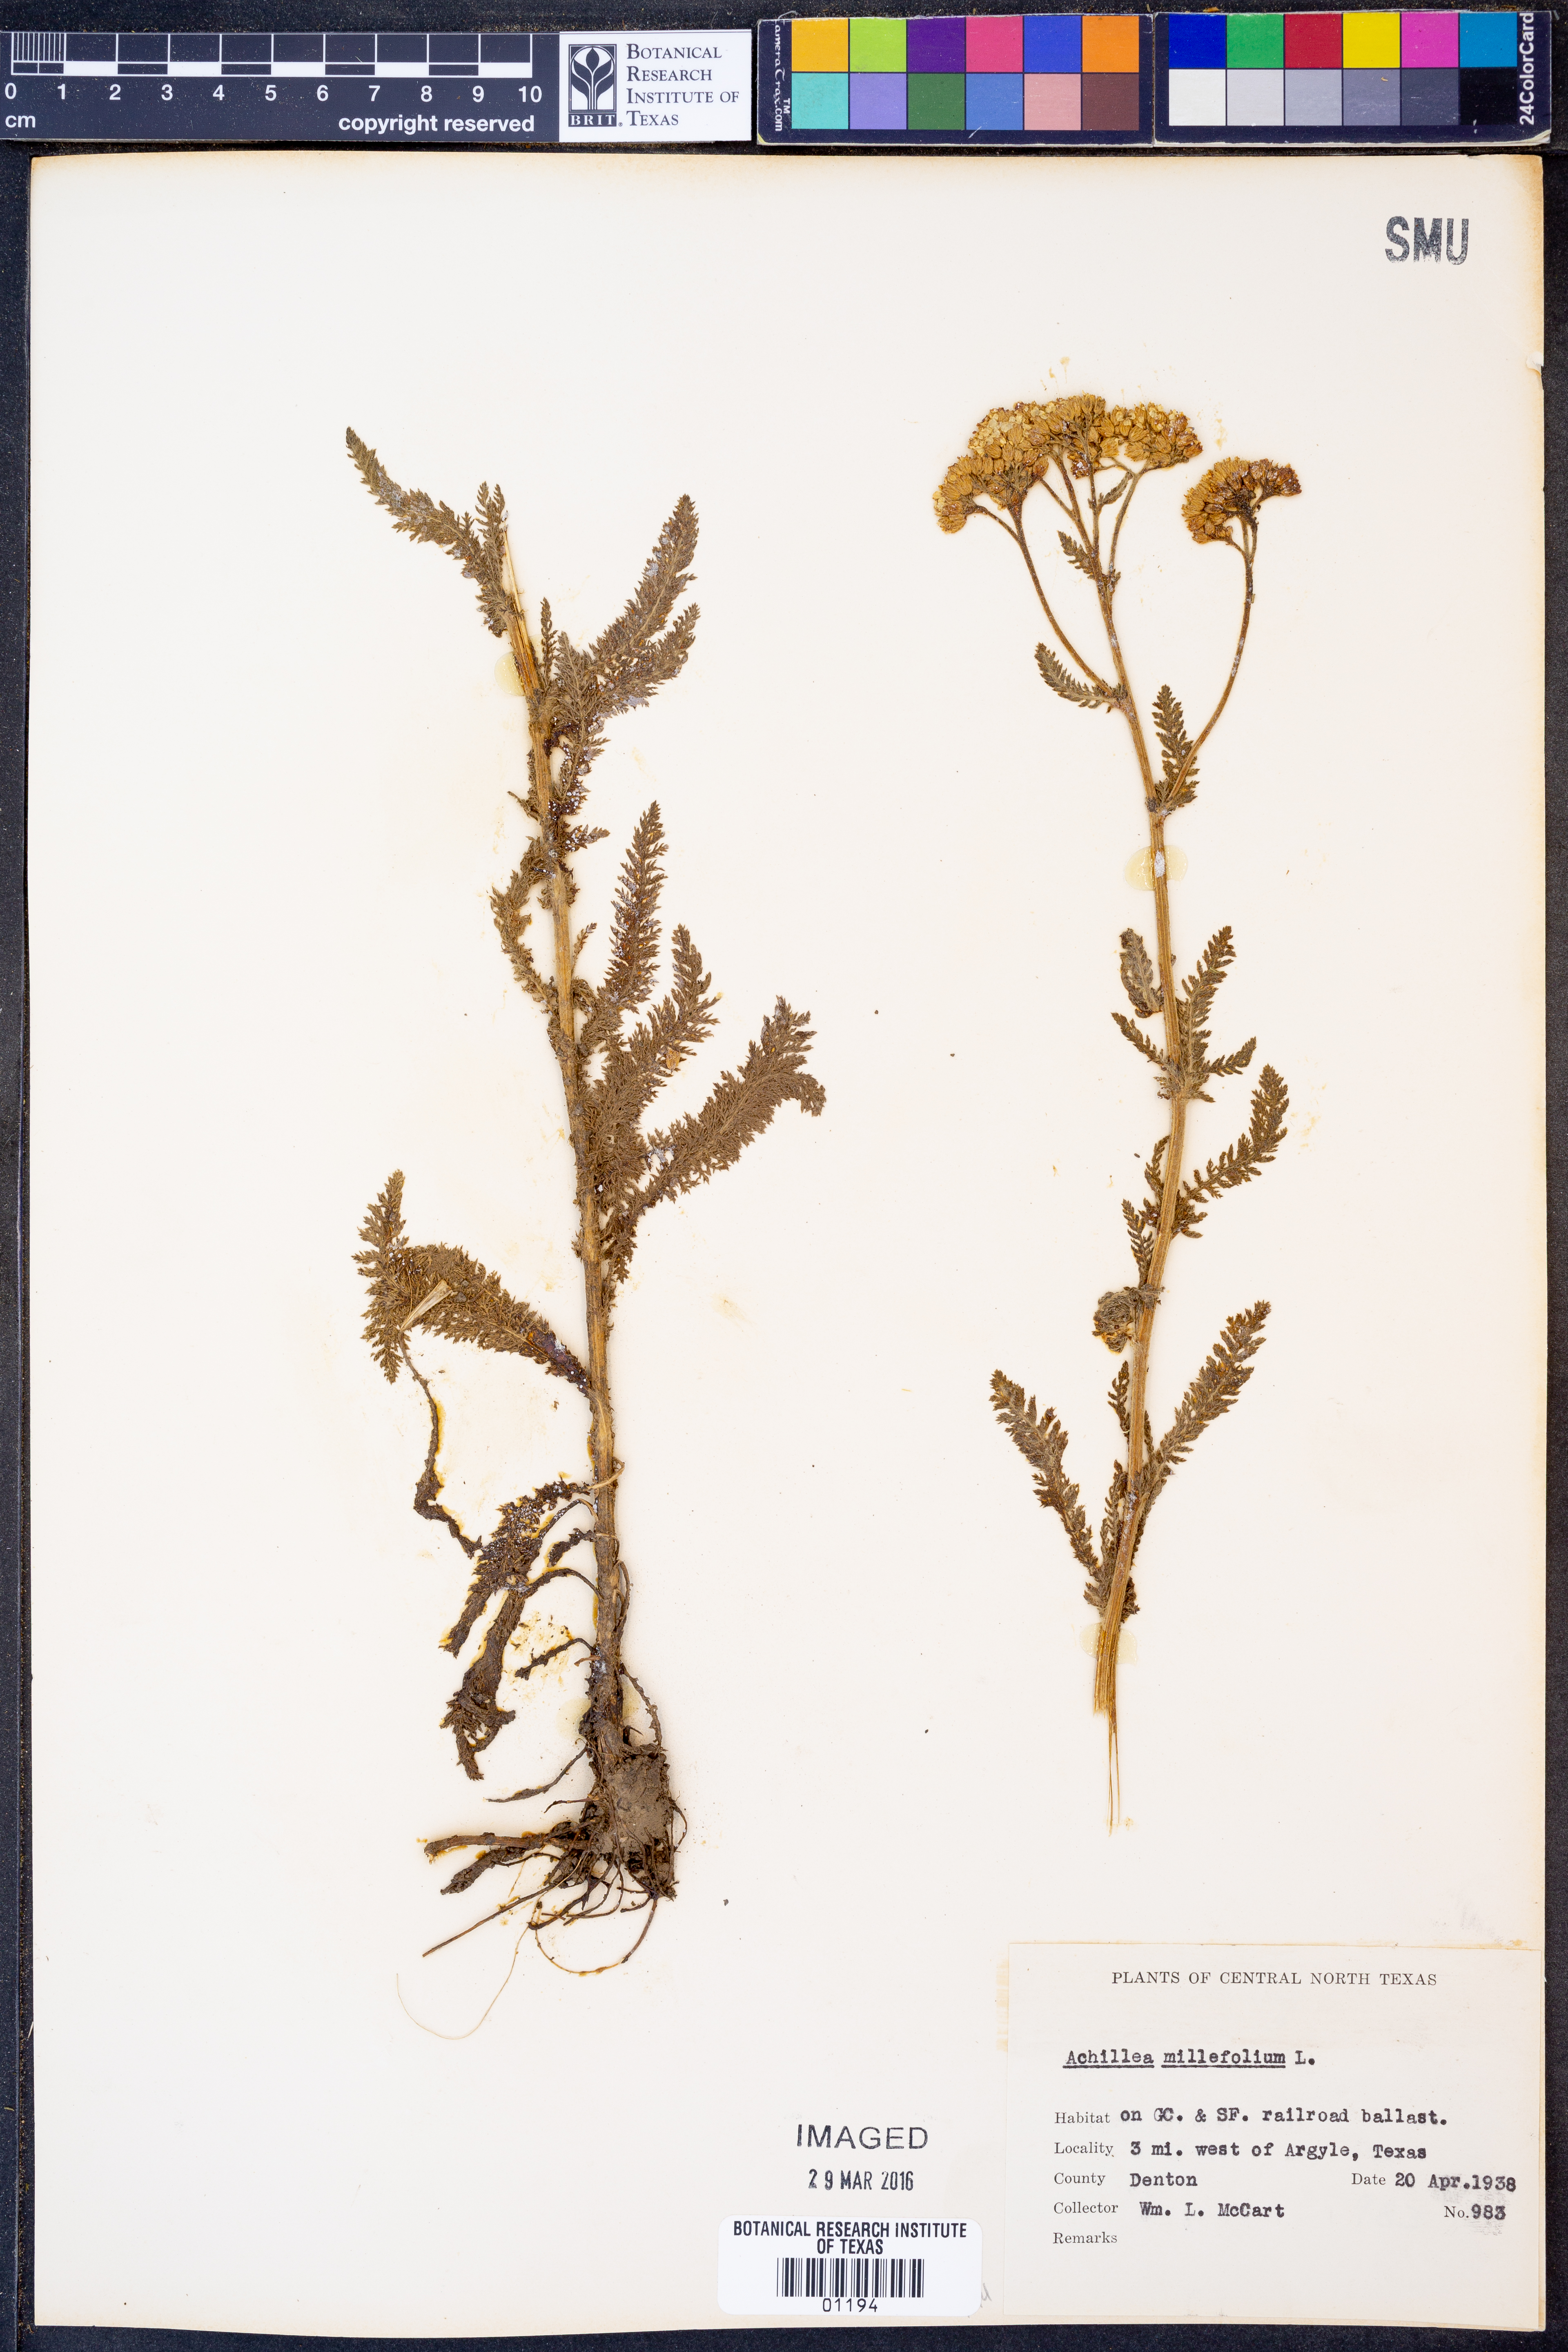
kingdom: Plantae
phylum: Tracheophyta
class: Magnoliopsida
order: Asterales
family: Asteraceae
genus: Achillea
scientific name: Achillea millefolium
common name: Yarrow
